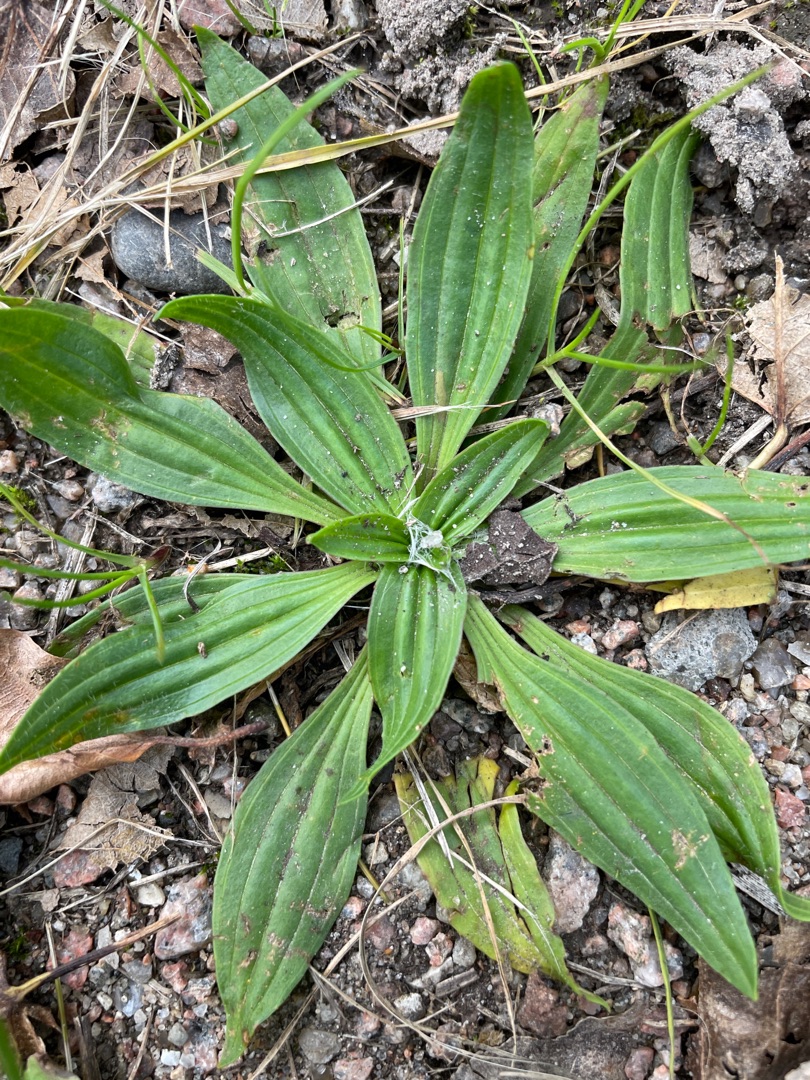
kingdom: Plantae
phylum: Tracheophyta
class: Magnoliopsida
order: Lamiales
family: Plantaginaceae
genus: Plantago
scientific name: Plantago lanceolata
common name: Lancet-vejbred
